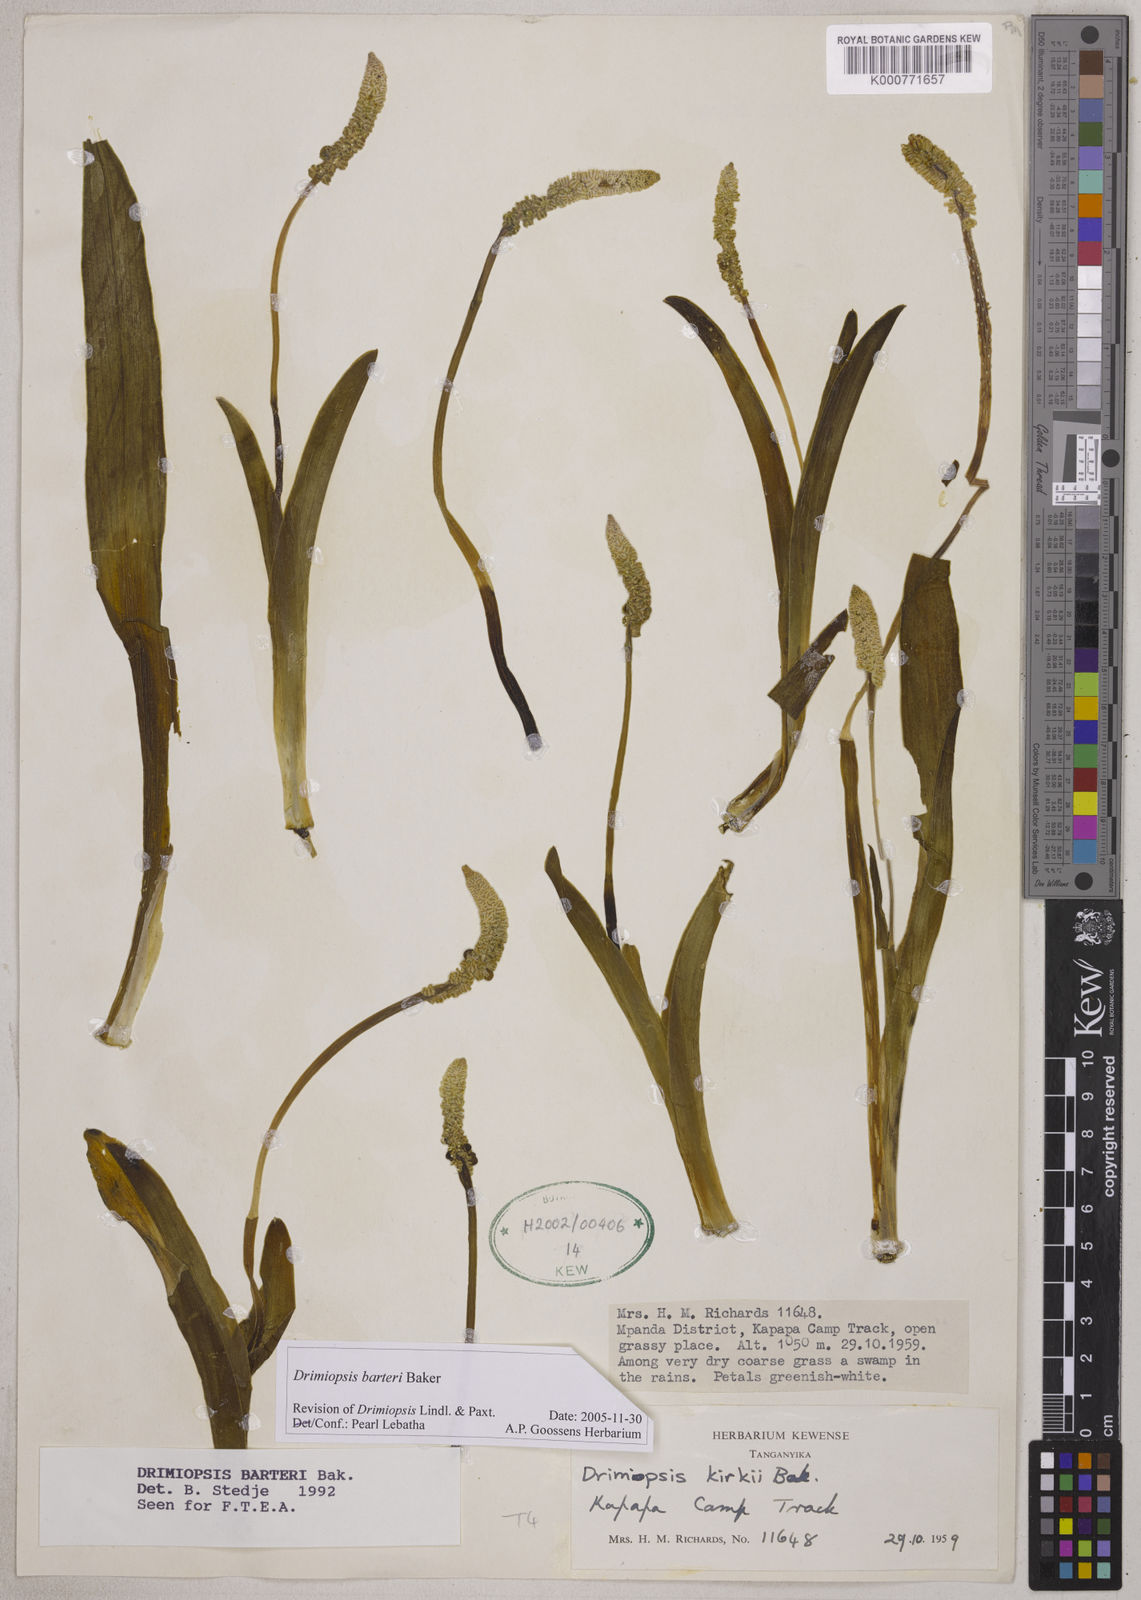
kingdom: Plantae
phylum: Tracheophyta
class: Liliopsida
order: Asparagales
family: Asparagaceae
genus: Drimiopsis
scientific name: Drimiopsis barteri
